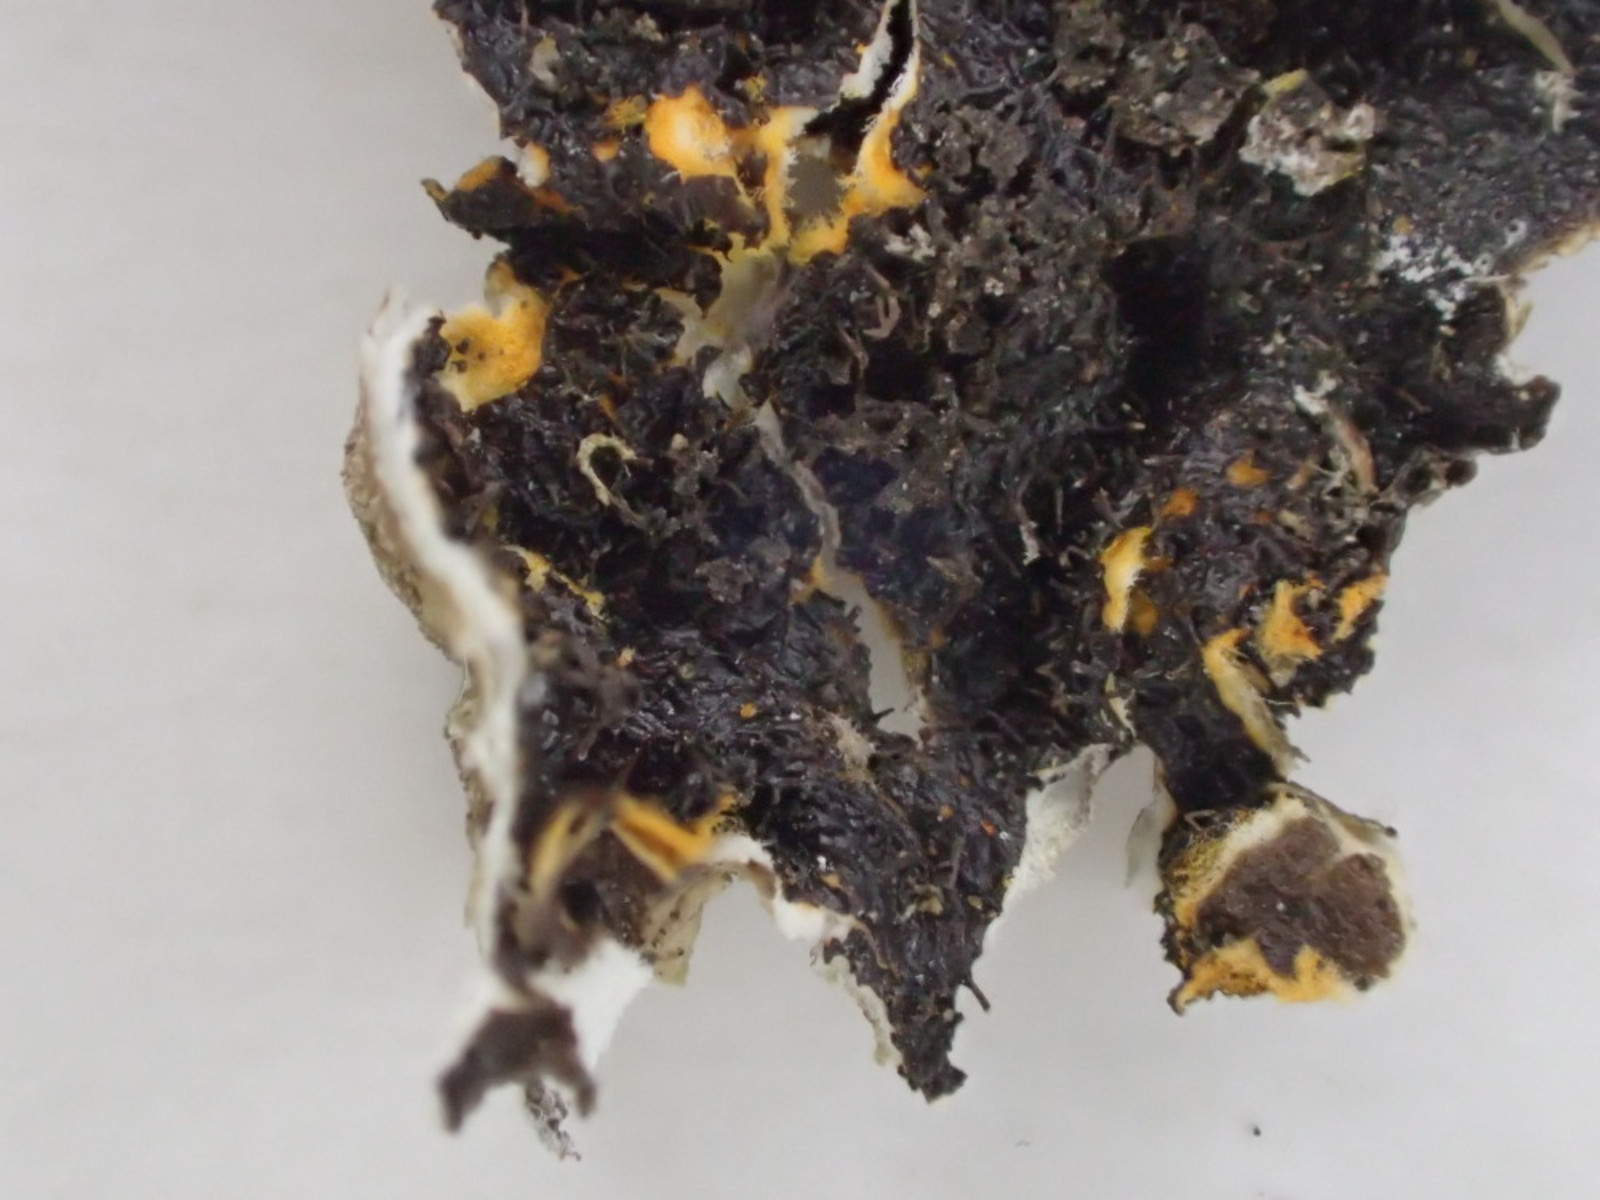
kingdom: Fungi
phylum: Ascomycota
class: Lecanoromycetes
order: Lecanorales
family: Parmeliaceae
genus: Melanelixia
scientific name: Melanelixia subaurifera
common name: guldpudret skållav
